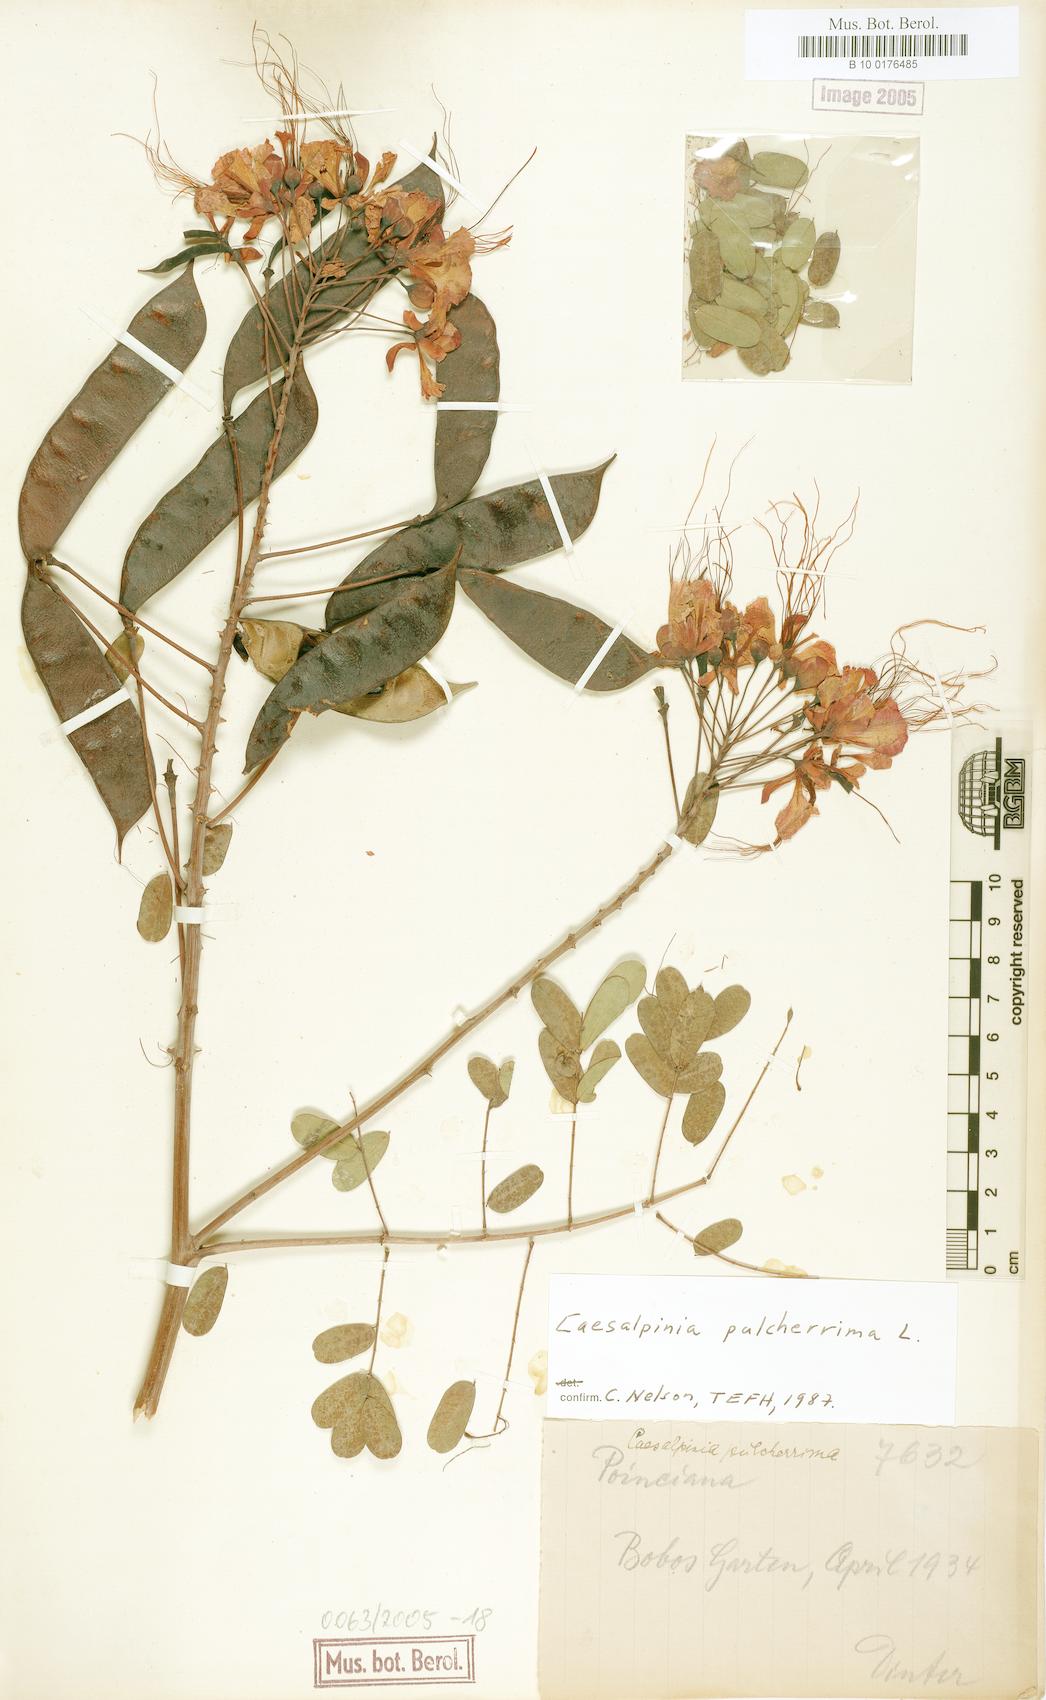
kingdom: Plantae
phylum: Tracheophyta
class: Magnoliopsida
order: Fabales
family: Fabaceae
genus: Caesalpinia
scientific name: Caesalpinia pulcherrima
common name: Pride-of-barbados
